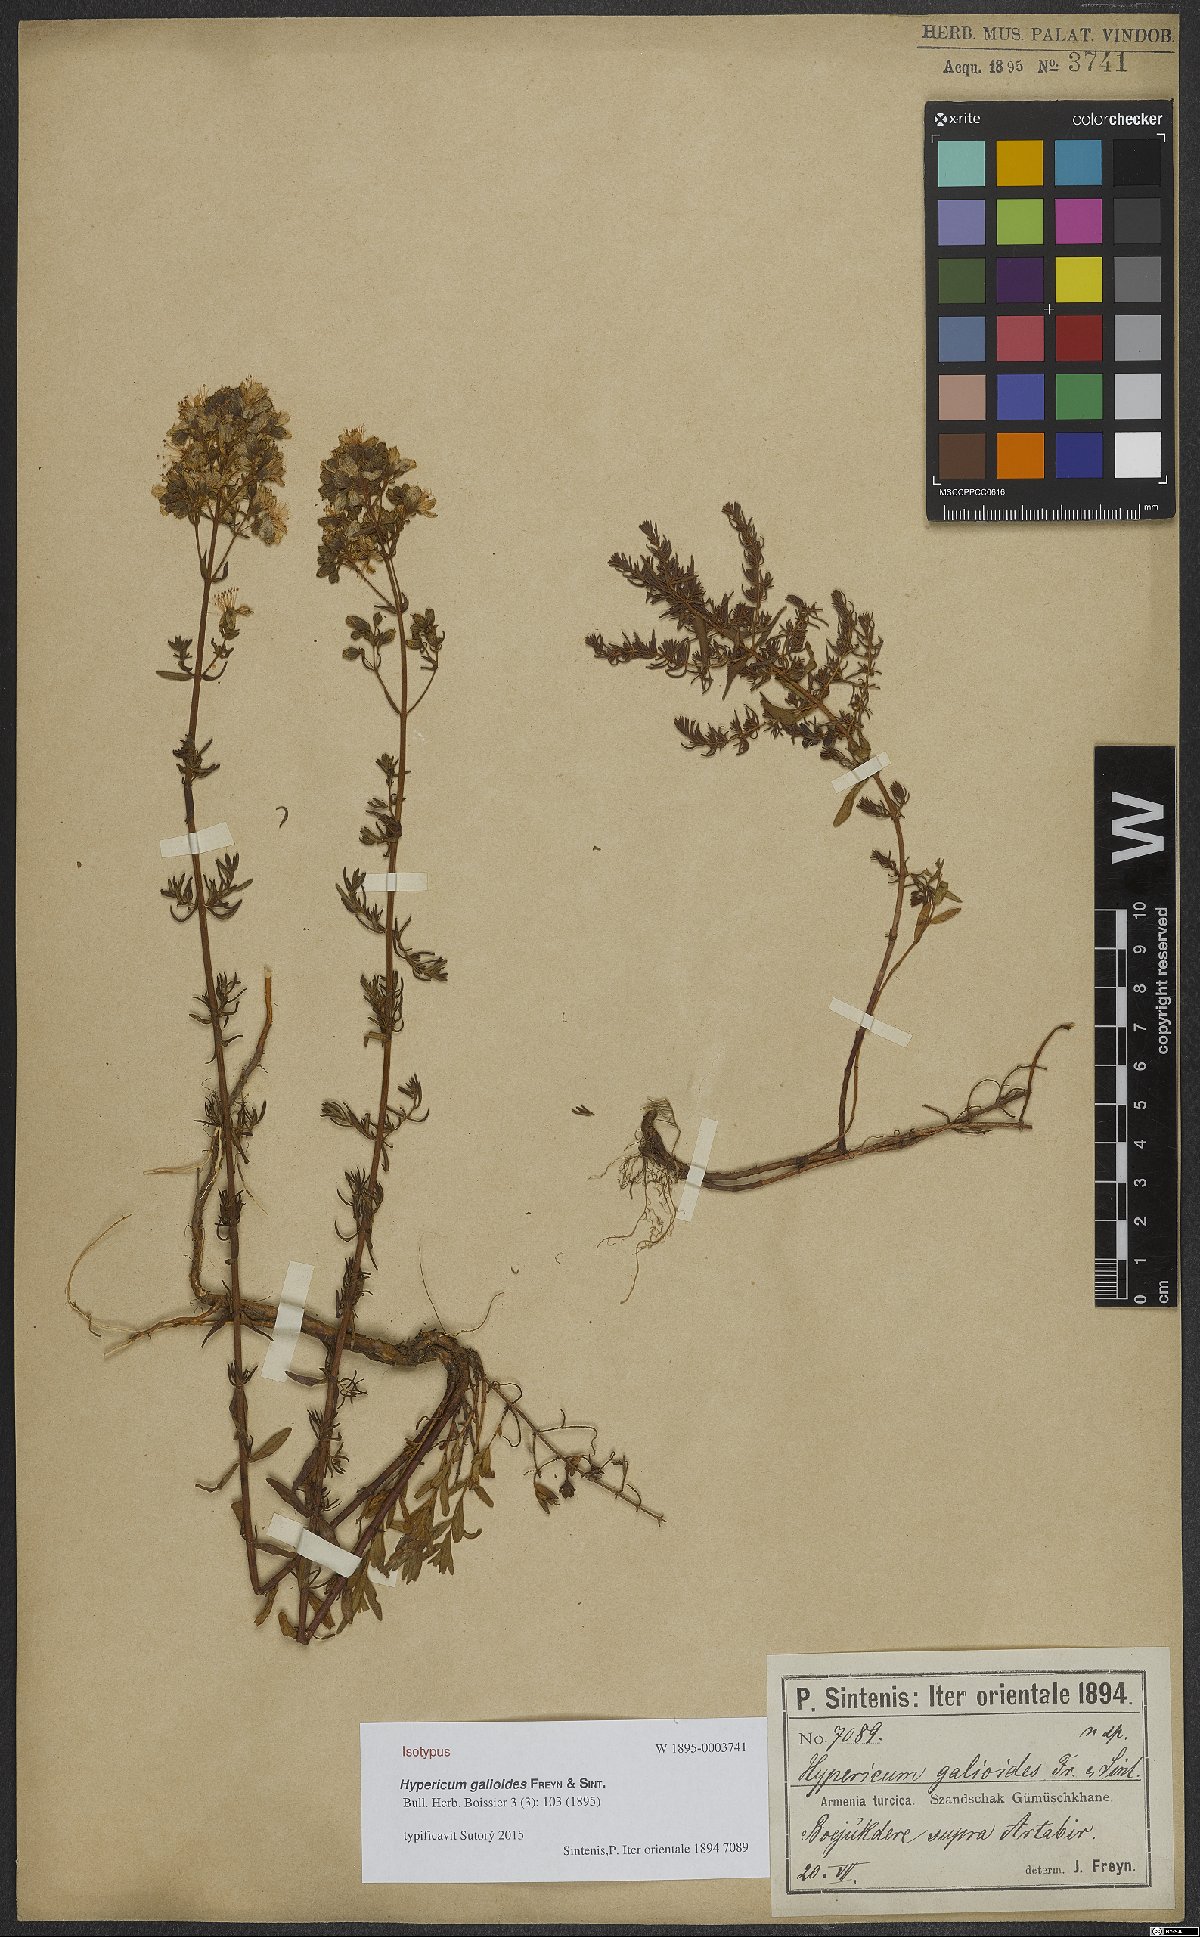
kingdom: Plantae
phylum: Tracheophyta
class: Magnoliopsida
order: Malpighiales
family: Hypericaceae
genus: Hypericum
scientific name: Hypericum scabrum
